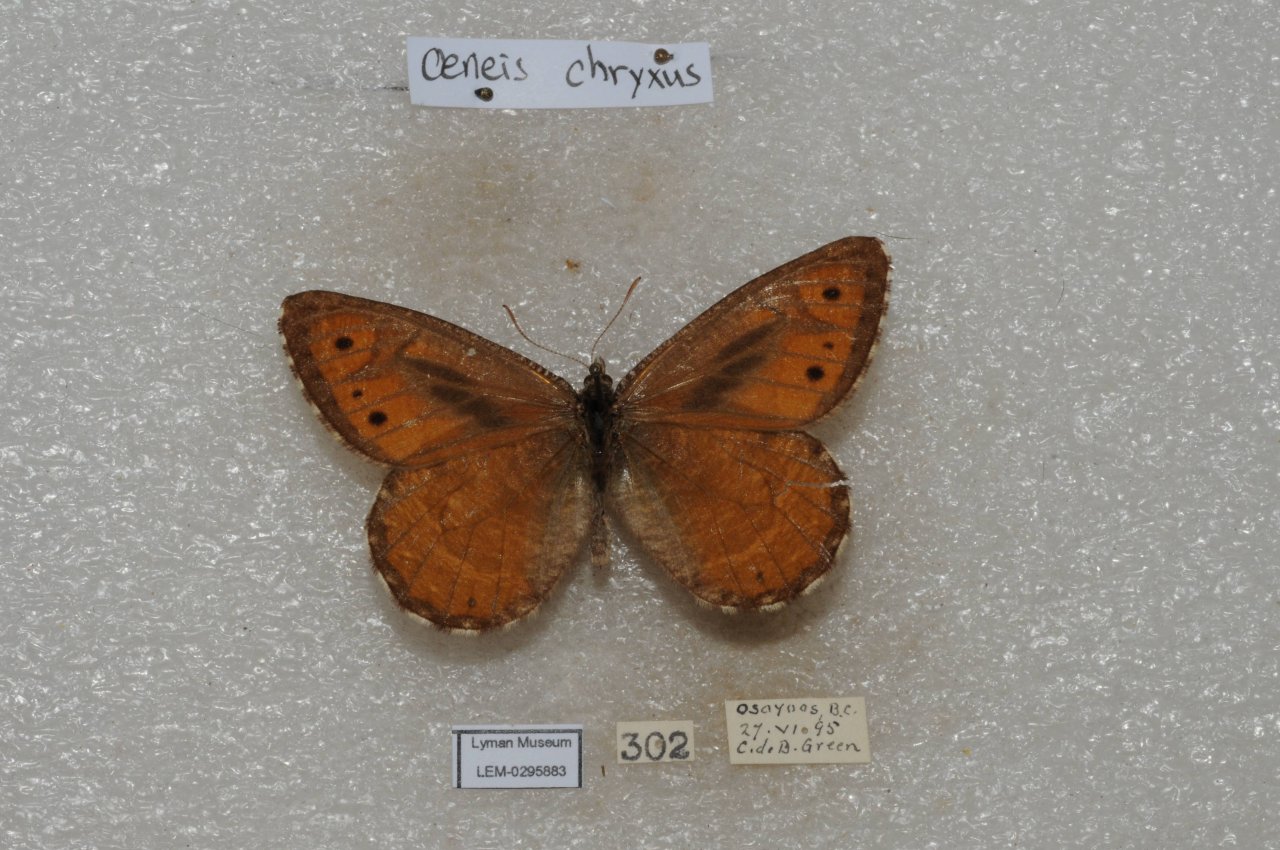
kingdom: Animalia
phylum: Arthropoda
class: Insecta
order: Lepidoptera
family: Nymphalidae
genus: Oeneis
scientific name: Oeneis chryxus
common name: Chryxus Arctic
